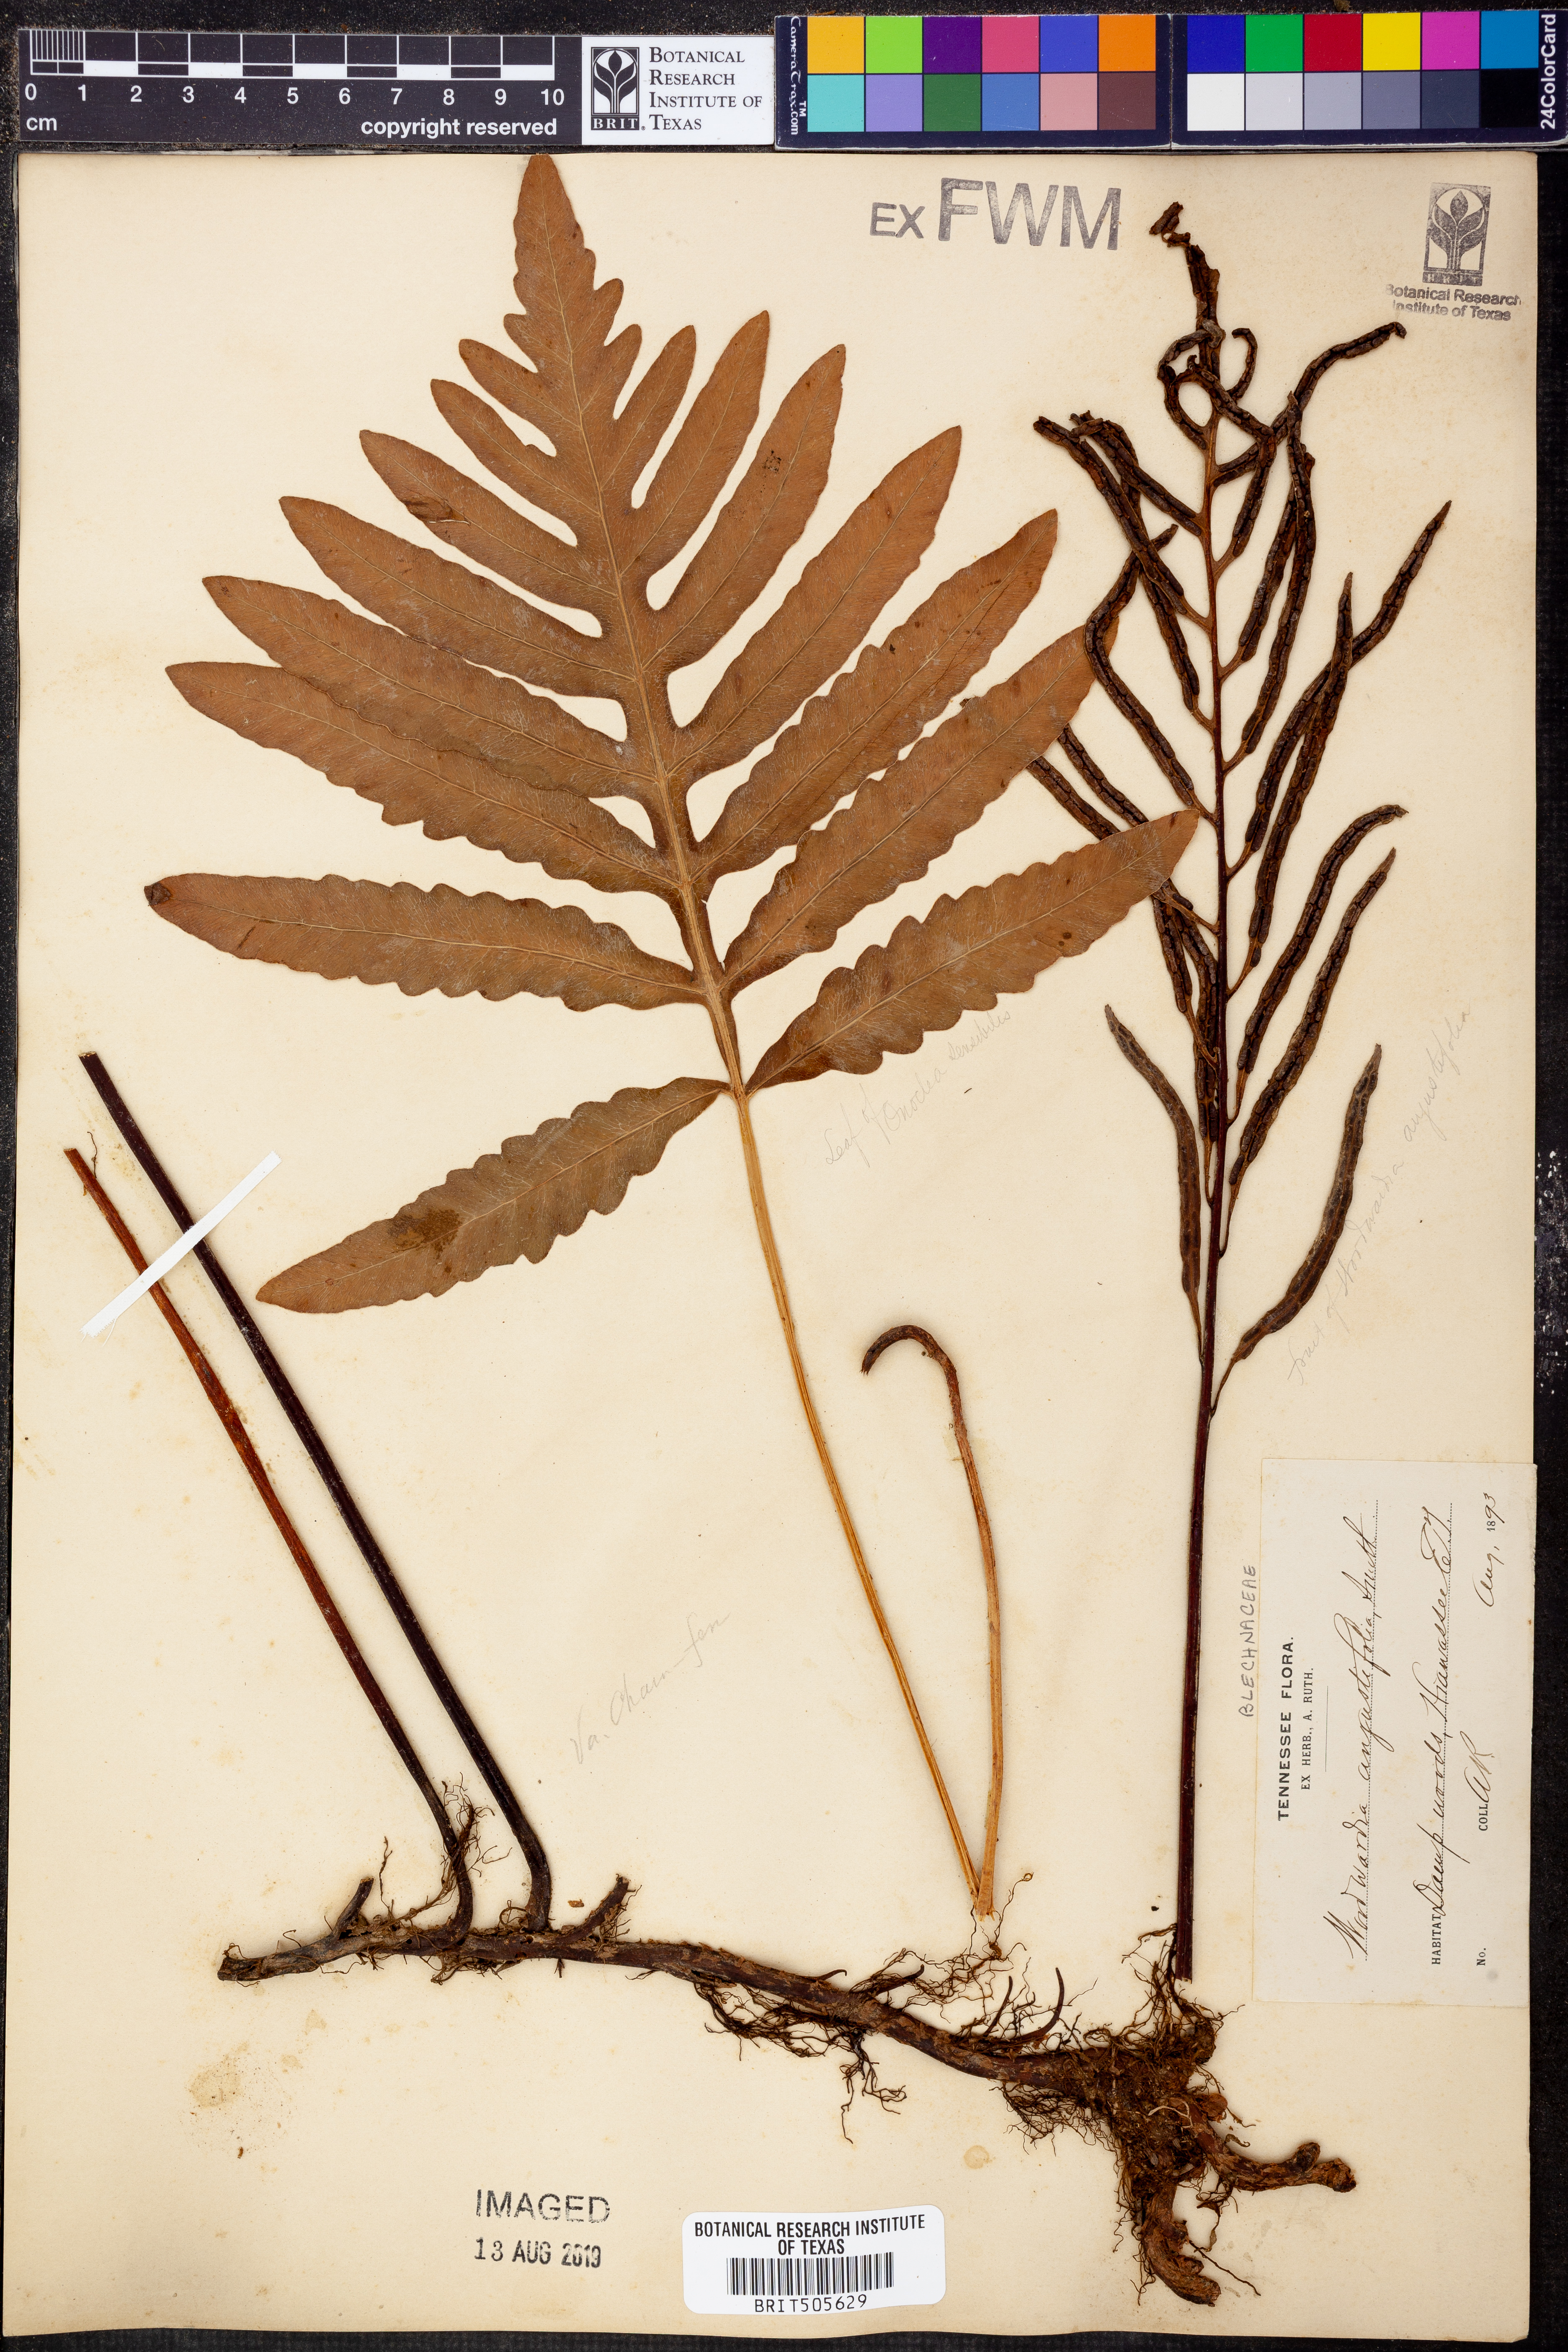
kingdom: Plantae
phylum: Tracheophyta
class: Polypodiopsida
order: Polypodiales
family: Blechnaceae
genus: Lorinseria
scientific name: Lorinseria areolata
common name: Dwarf chain fern
